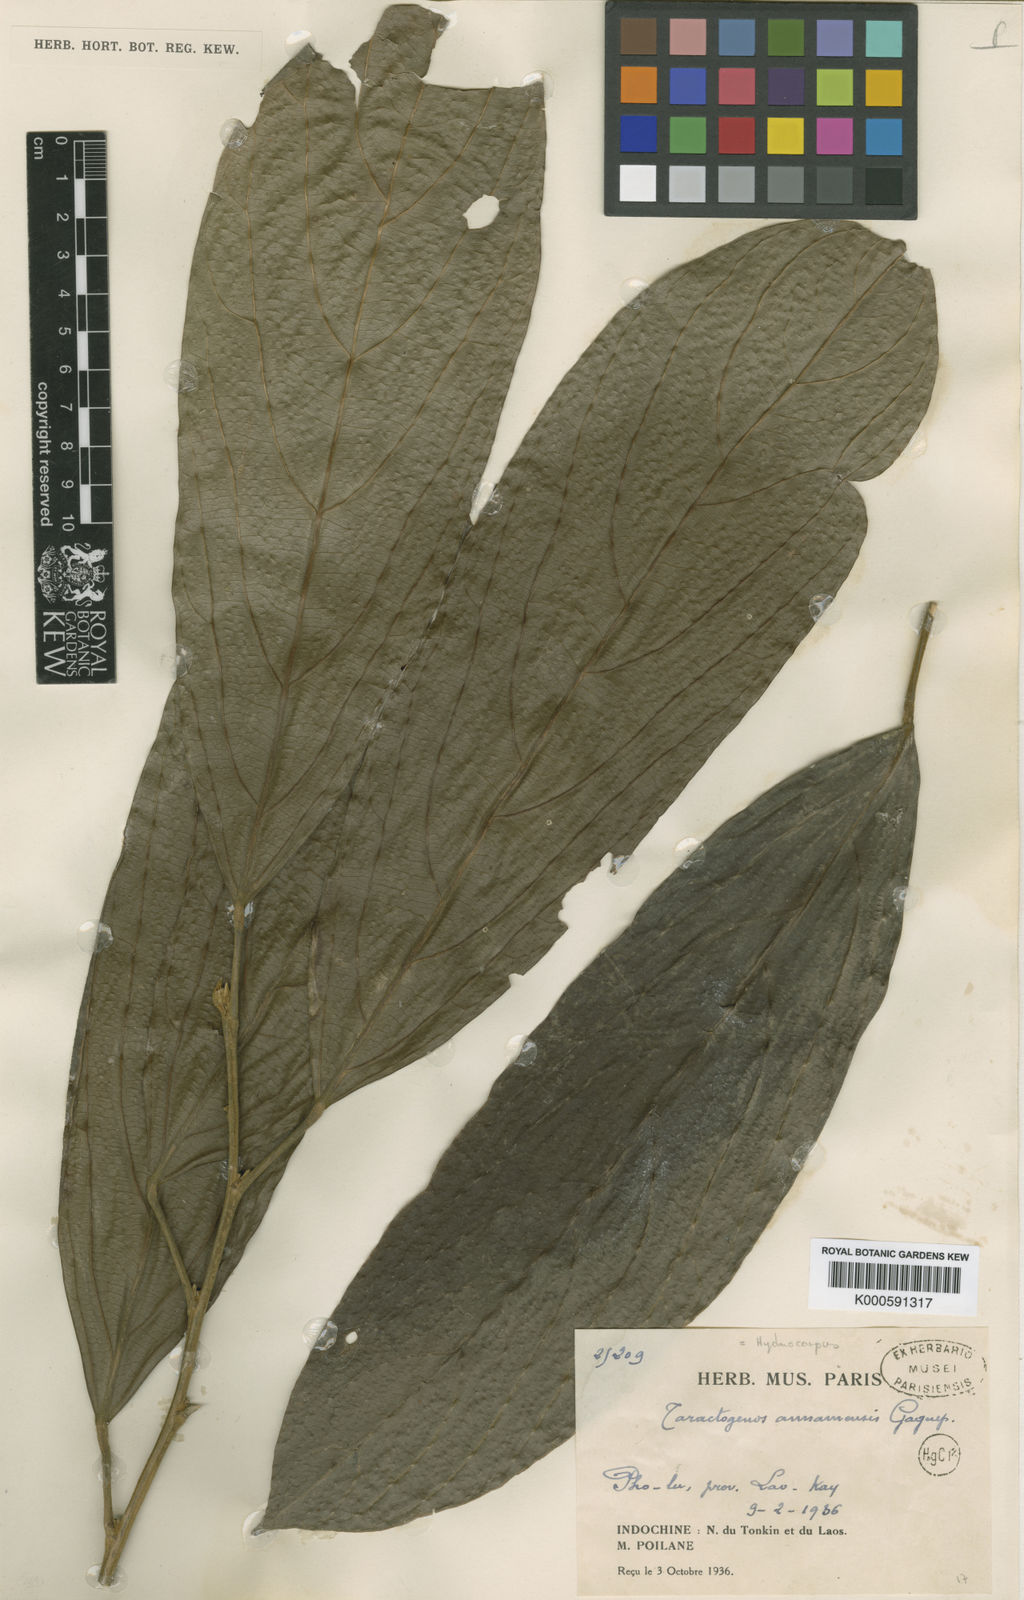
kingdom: Plantae
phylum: Tracheophyta
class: Magnoliopsida
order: Malpighiales
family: Achariaceae
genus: Hydnocarpus
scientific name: Hydnocarpus annamensis
